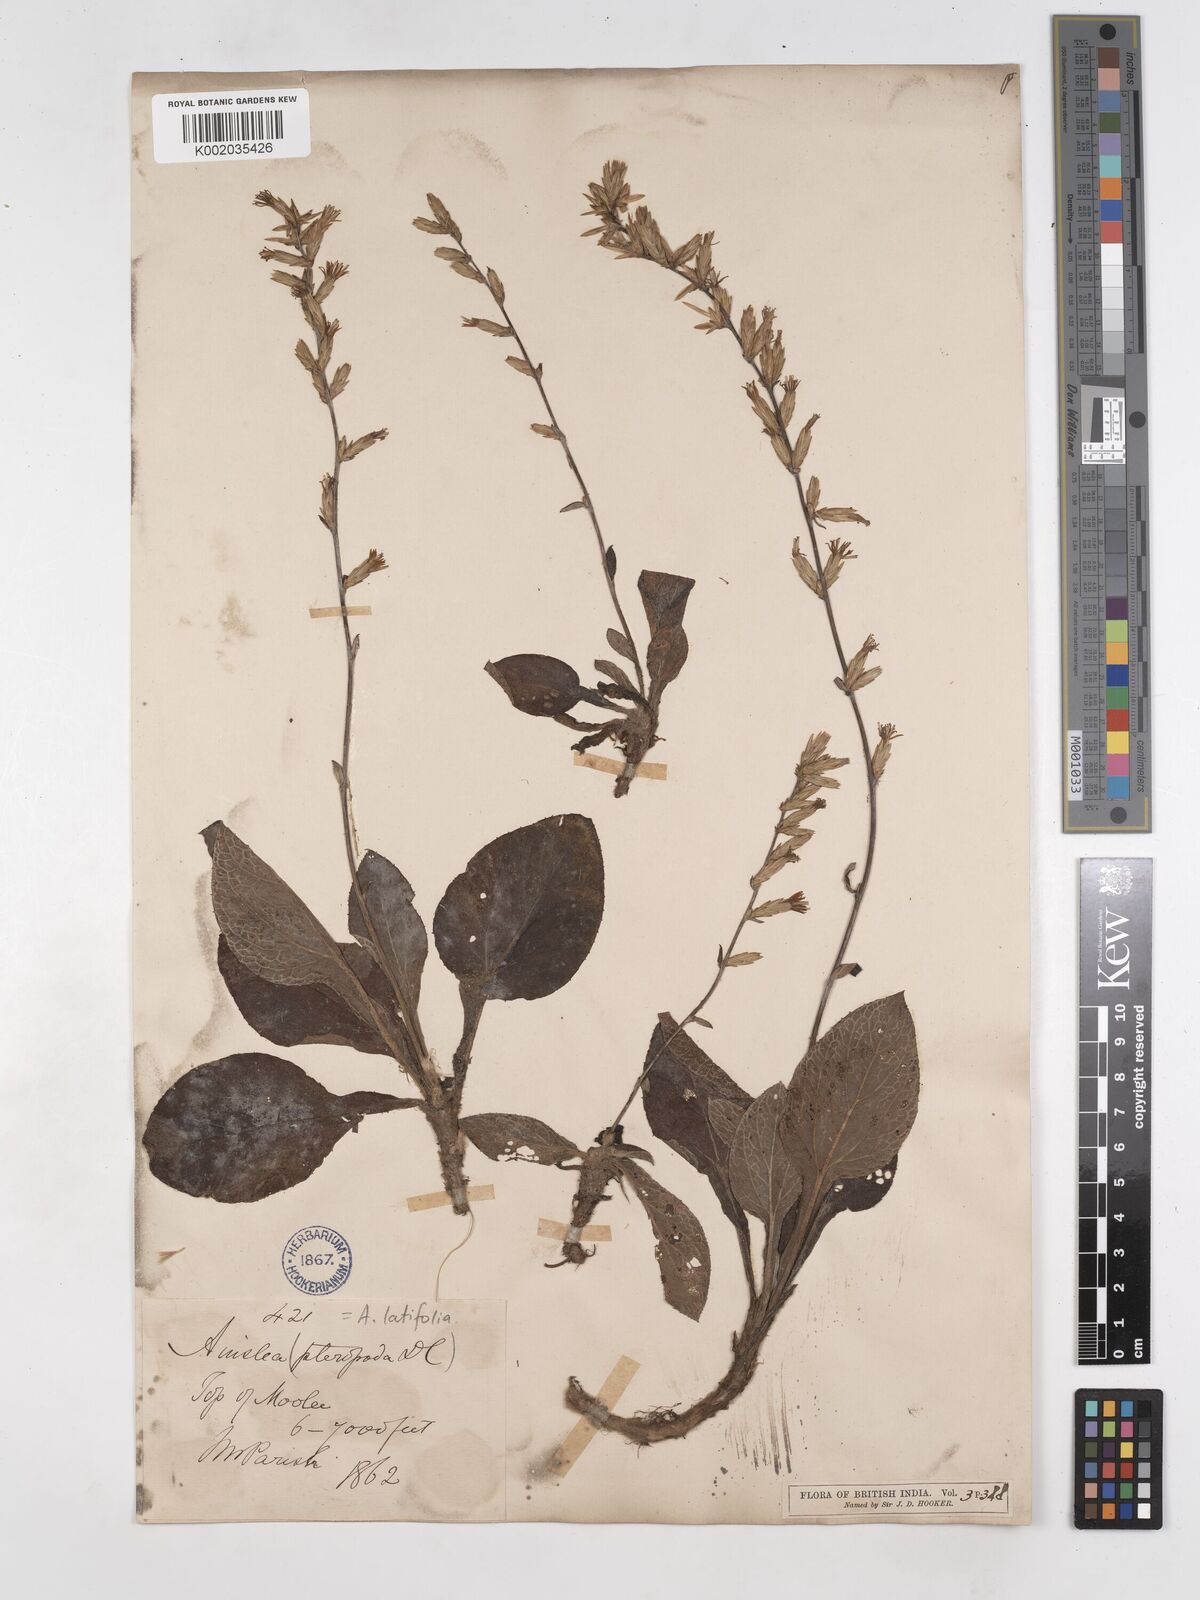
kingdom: Plantae
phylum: Tracheophyta
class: Magnoliopsida
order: Asterales
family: Asteraceae
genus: Ainsliaea
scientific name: Ainsliaea latifolia
